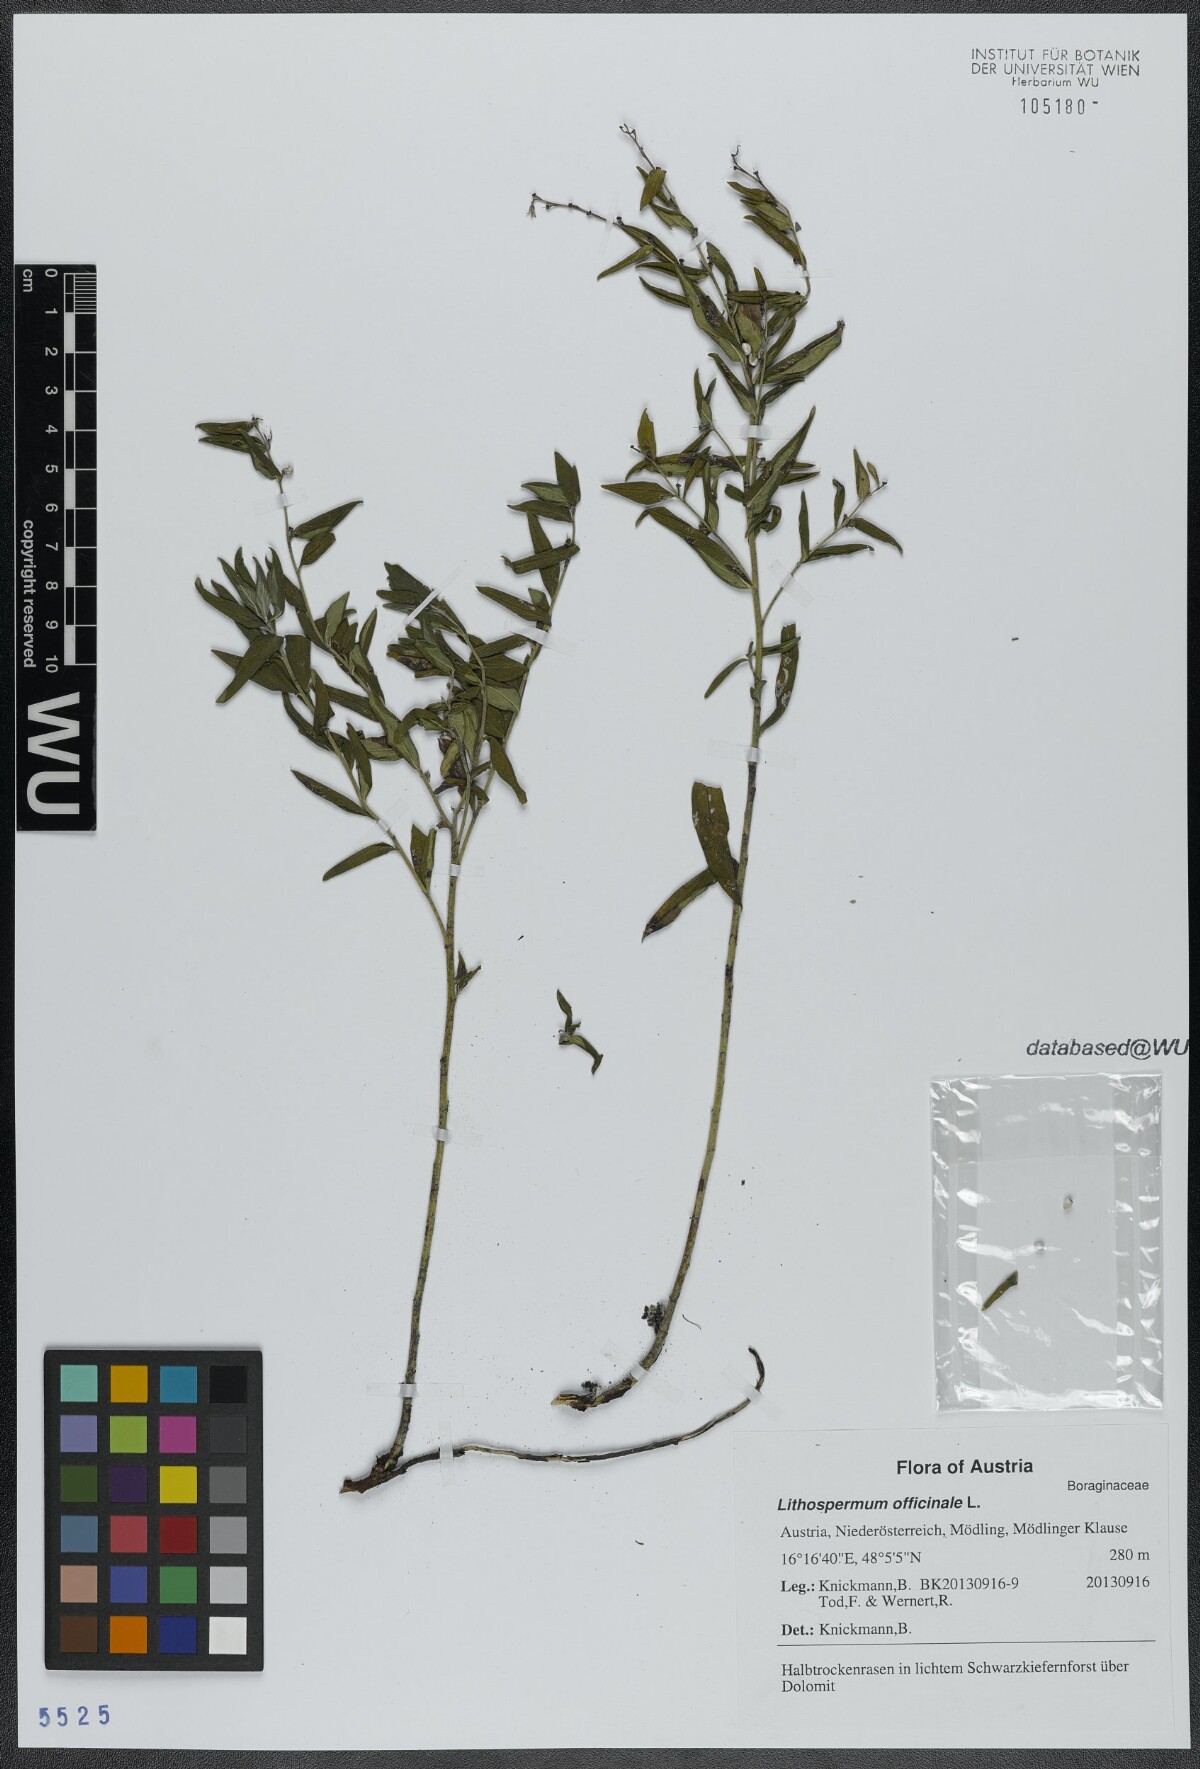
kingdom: Plantae
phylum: Tracheophyta
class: Magnoliopsida
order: Boraginales
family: Boraginaceae
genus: Lithospermum
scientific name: Lithospermum officinale
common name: Common gromwell
